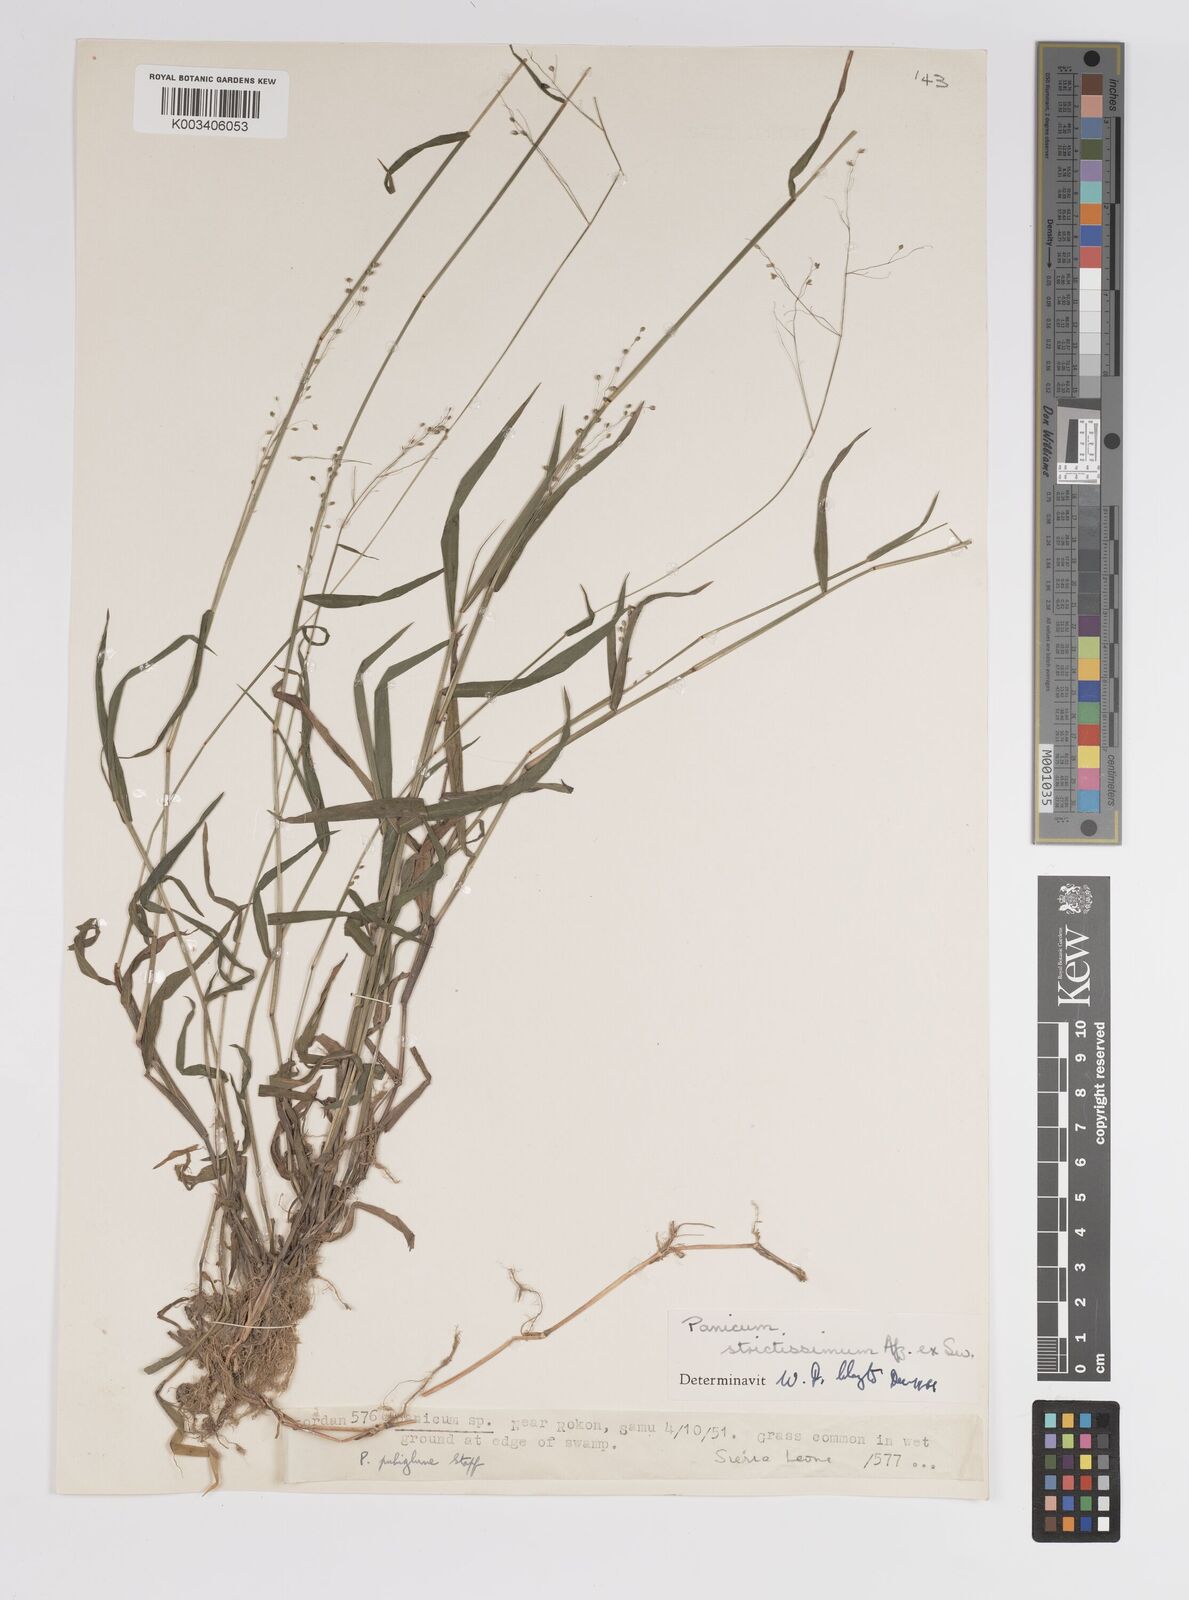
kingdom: Plantae
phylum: Tracheophyta
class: Liliopsida
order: Poales
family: Poaceae
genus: Trichanthecium
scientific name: Trichanthecium strictissimum
